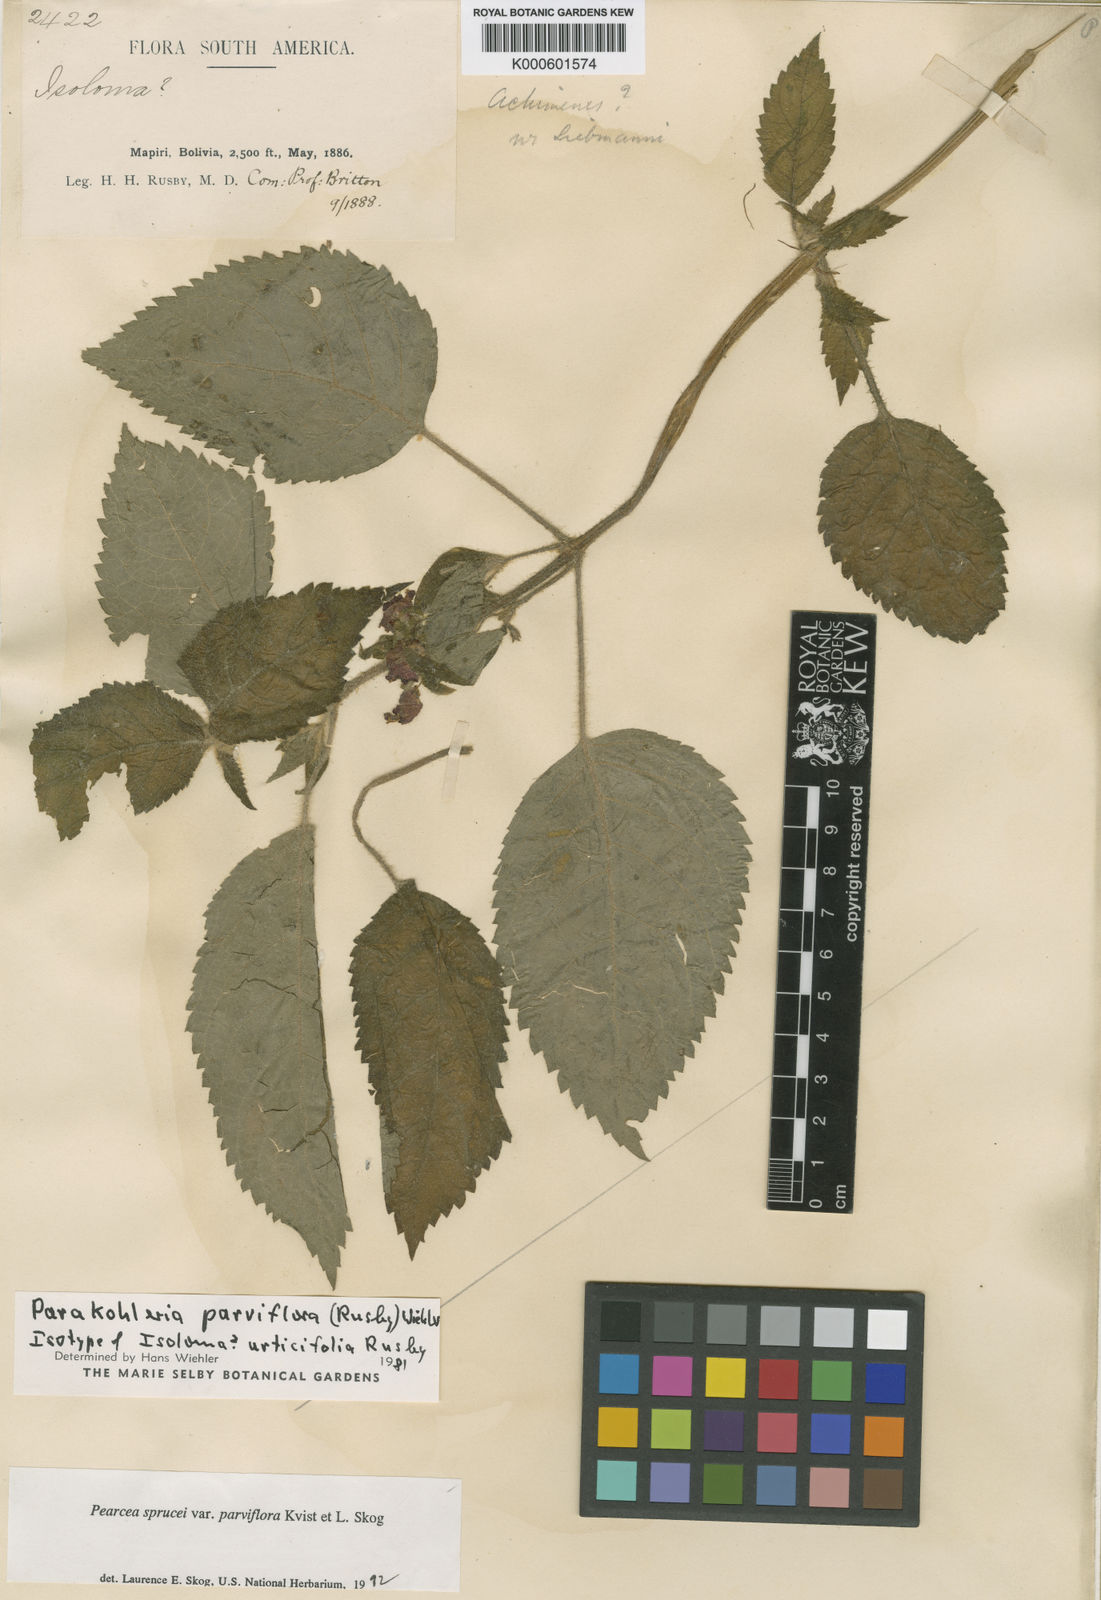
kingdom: Plantae
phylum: Tracheophyta
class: Magnoliopsida
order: Lamiales
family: Gesneriaceae
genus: Pearcea
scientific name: Pearcea sprucei
